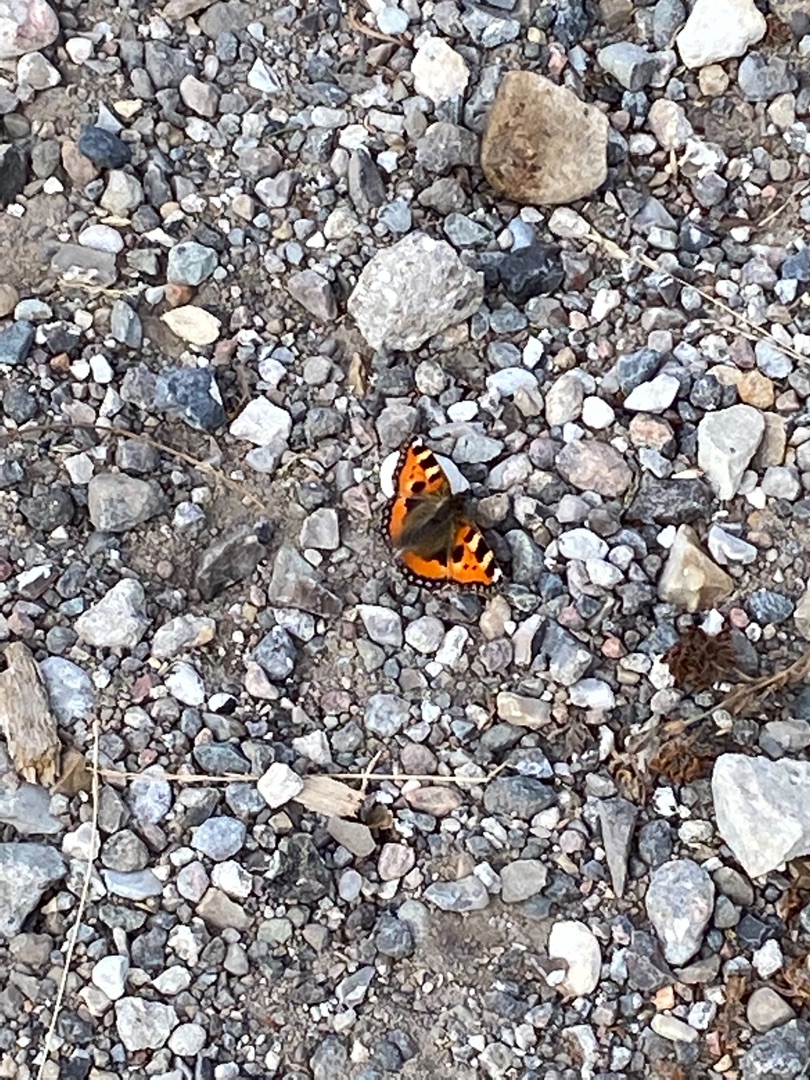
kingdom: Animalia
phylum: Arthropoda
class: Insecta
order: Lepidoptera
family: Nymphalidae
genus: Aglais
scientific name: Aglais urticae
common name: Nældens takvinge
